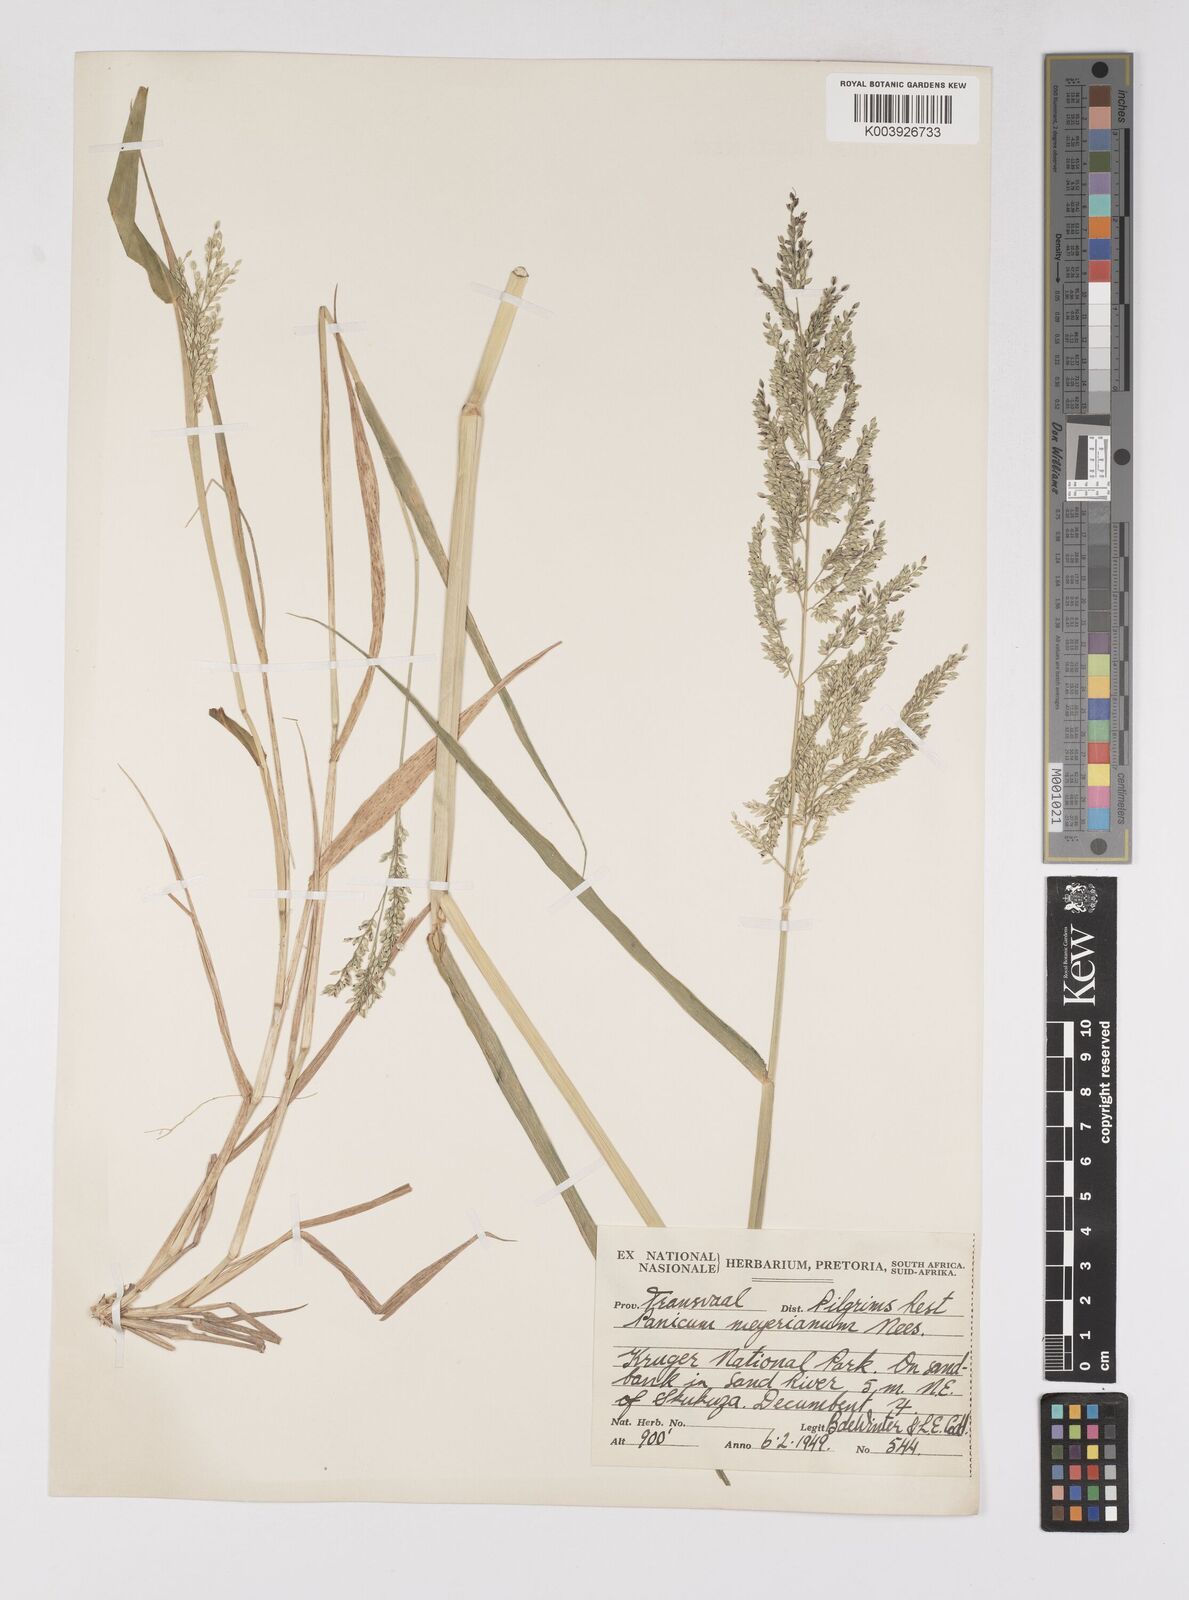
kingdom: Plantae
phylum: Tracheophyta
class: Liliopsida
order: Poales
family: Poaceae
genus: Eriochloa
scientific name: Eriochloa meyeriana
